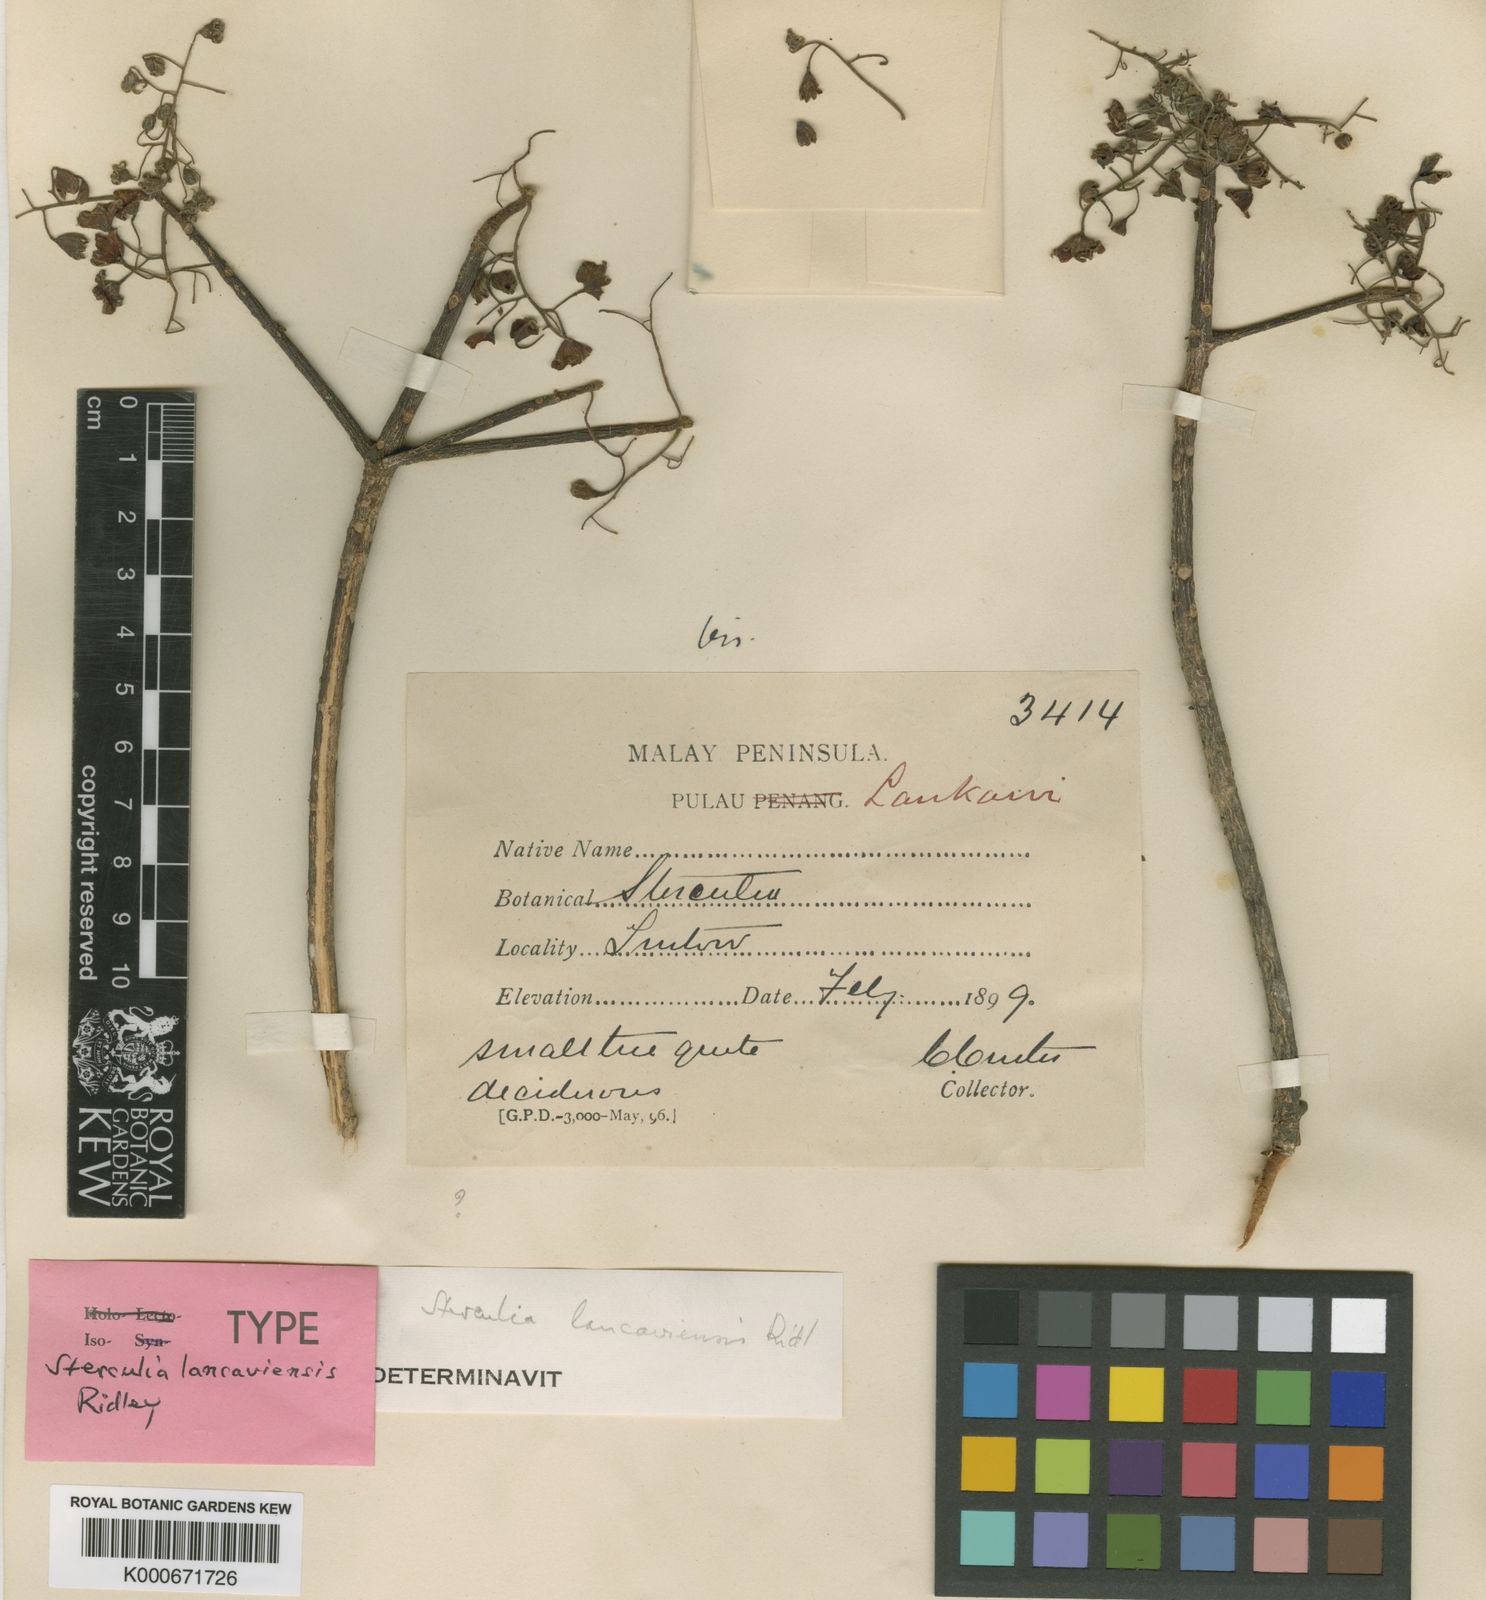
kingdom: Plantae
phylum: Tracheophyta
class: Magnoliopsida
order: Malvales
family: Malvaceae
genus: Sterculia
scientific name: Sterculia lancaviensis
